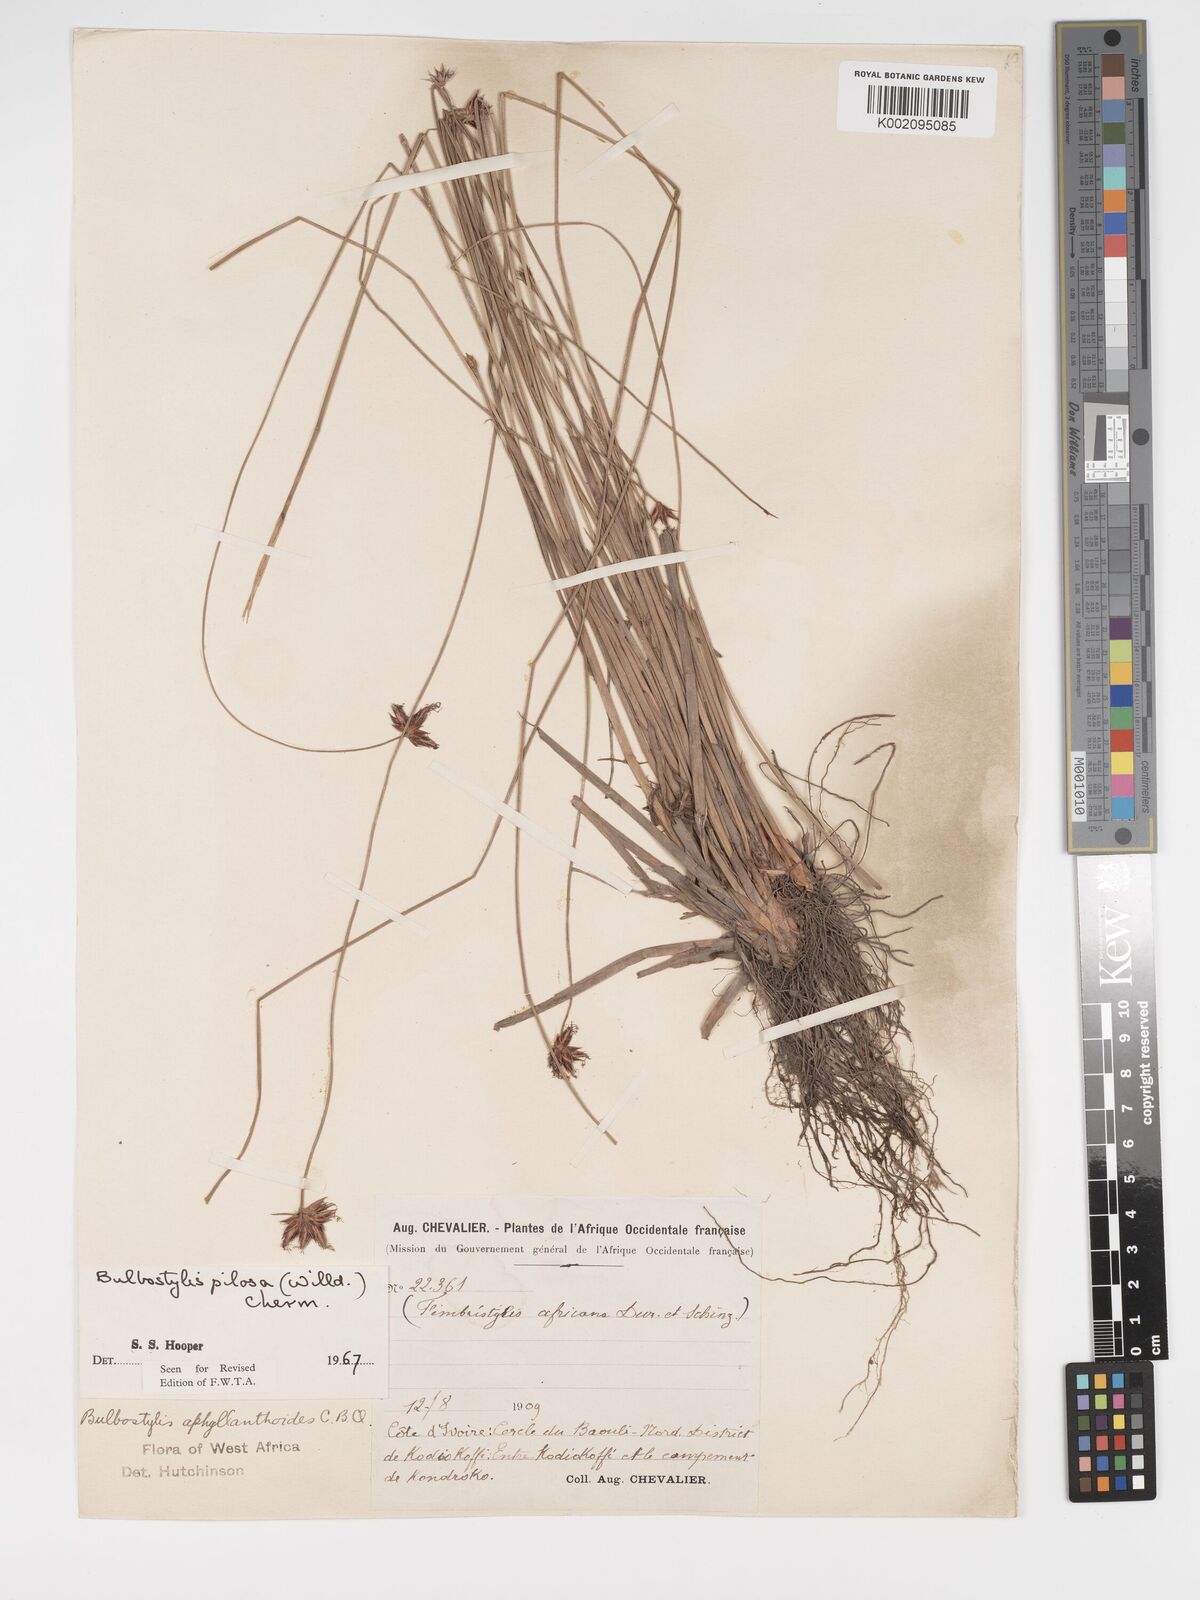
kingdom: Plantae
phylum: Tracheophyta
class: Liliopsida
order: Poales
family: Cyperaceae
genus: Bulbostylis
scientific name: Bulbostylis pilosa
